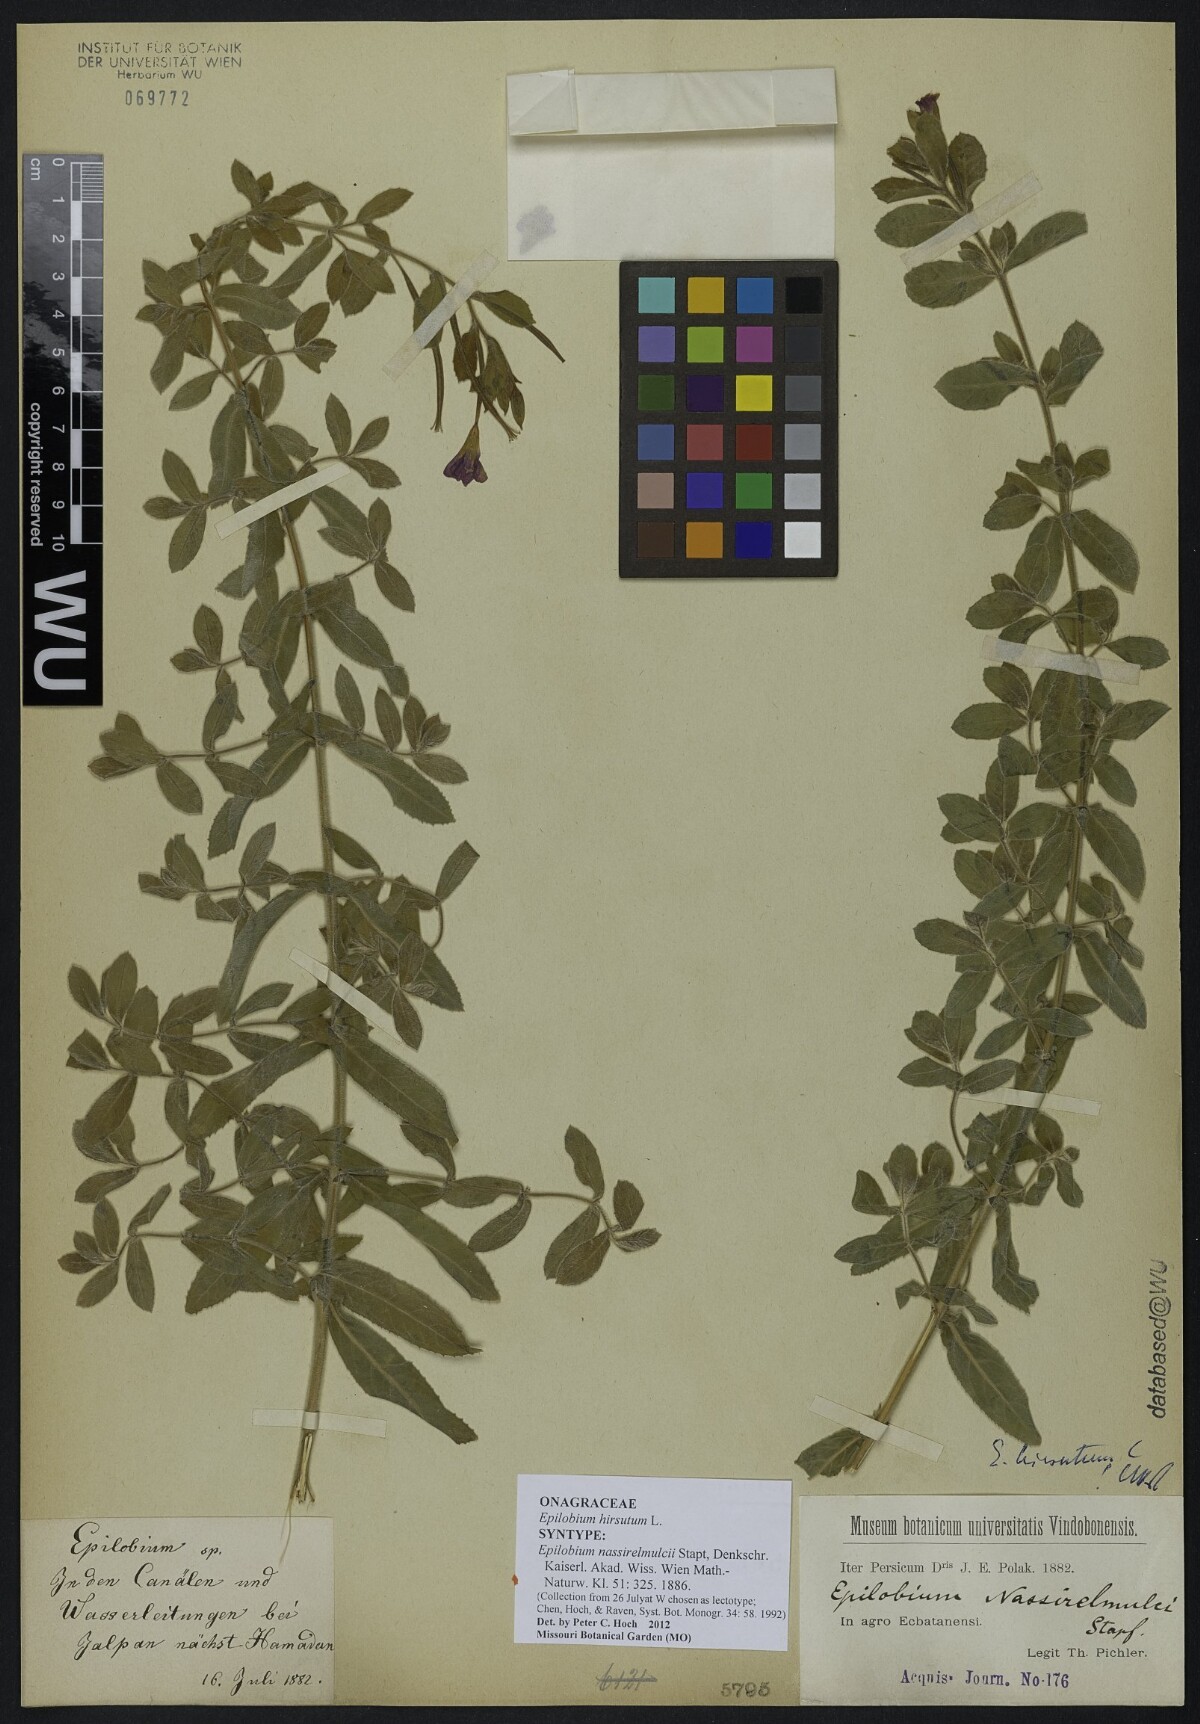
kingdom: Plantae
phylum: Tracheophyta
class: Magnoliopsida
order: Myrtales
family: Onagraceae
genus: Epilobium
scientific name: Epilobium nassirelmulcii
